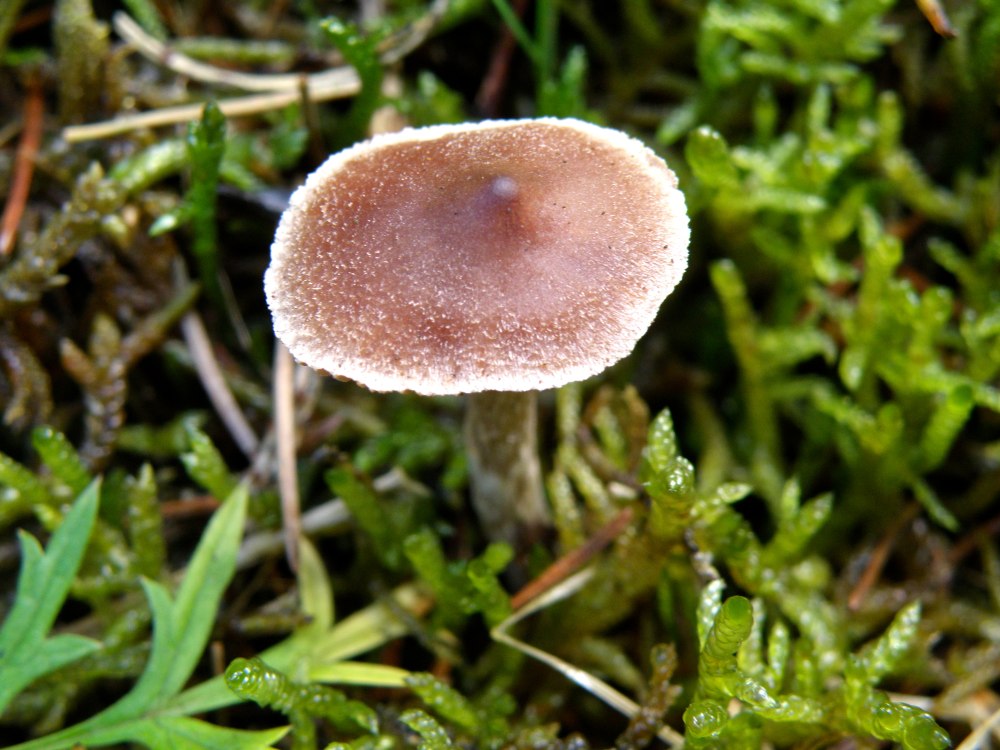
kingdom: Fungi
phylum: Basidiomycota
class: Agaricomycetes
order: Agaricales
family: Cortinariaceae
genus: Cortinarius
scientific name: Cortinarius comptulus
